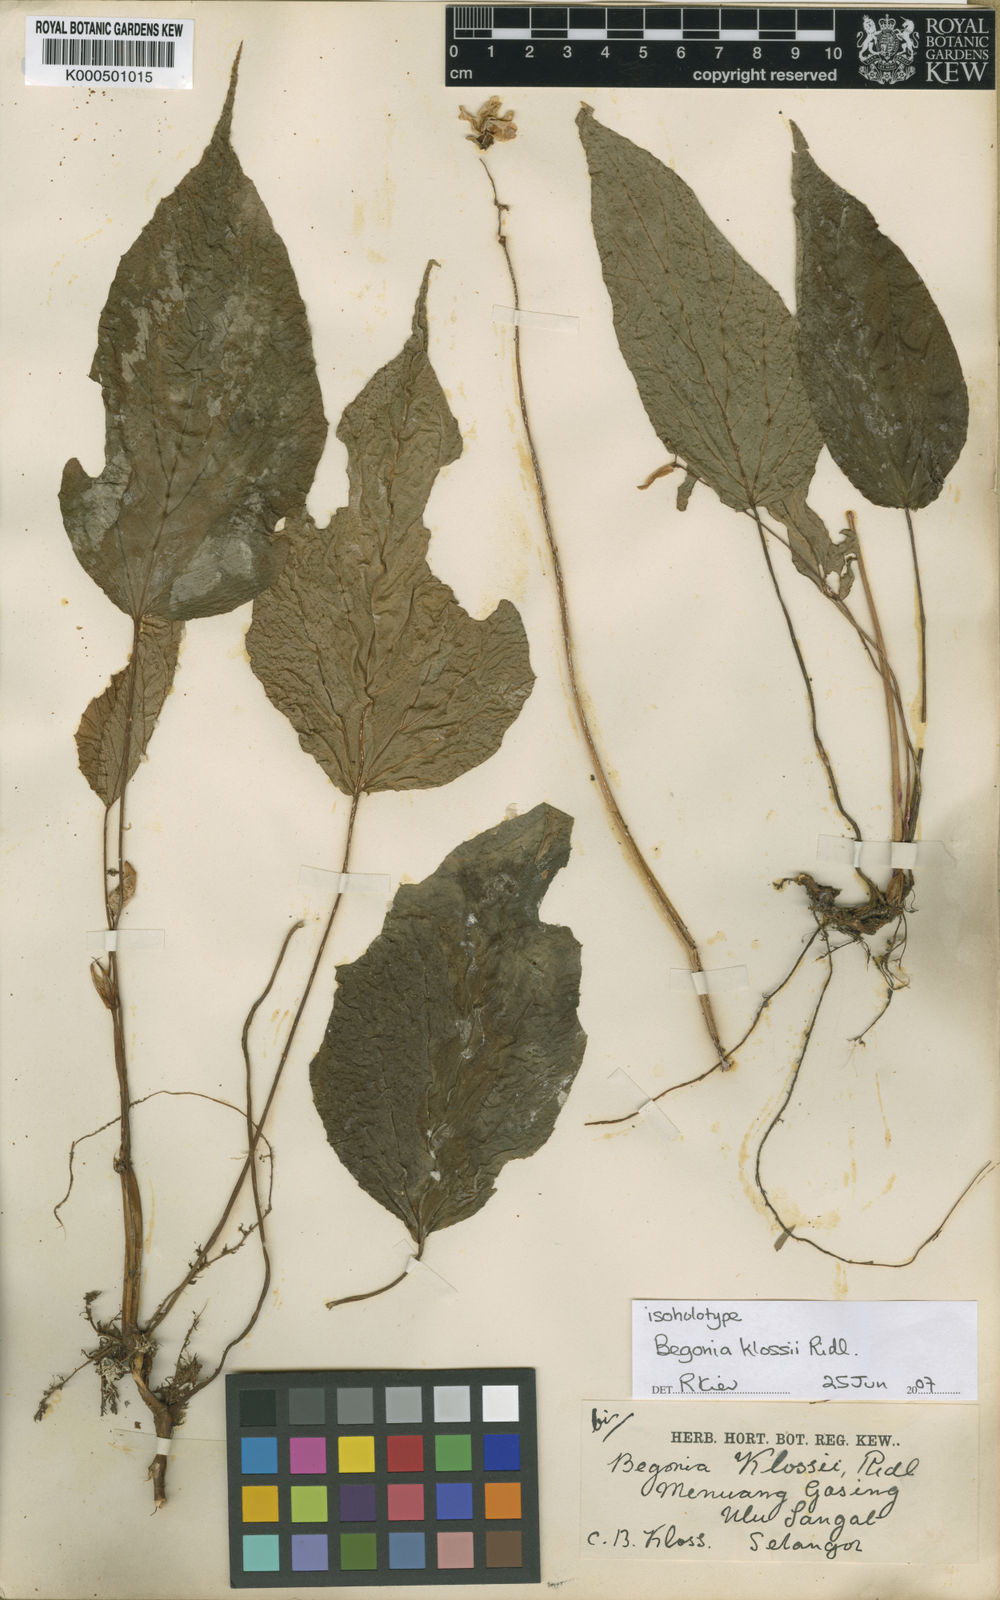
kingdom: Plantae
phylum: Tracheophyta
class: Magnoliopsida
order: Cucurbitales
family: Begoniaceae
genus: Begonia
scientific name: Begonia klossii
